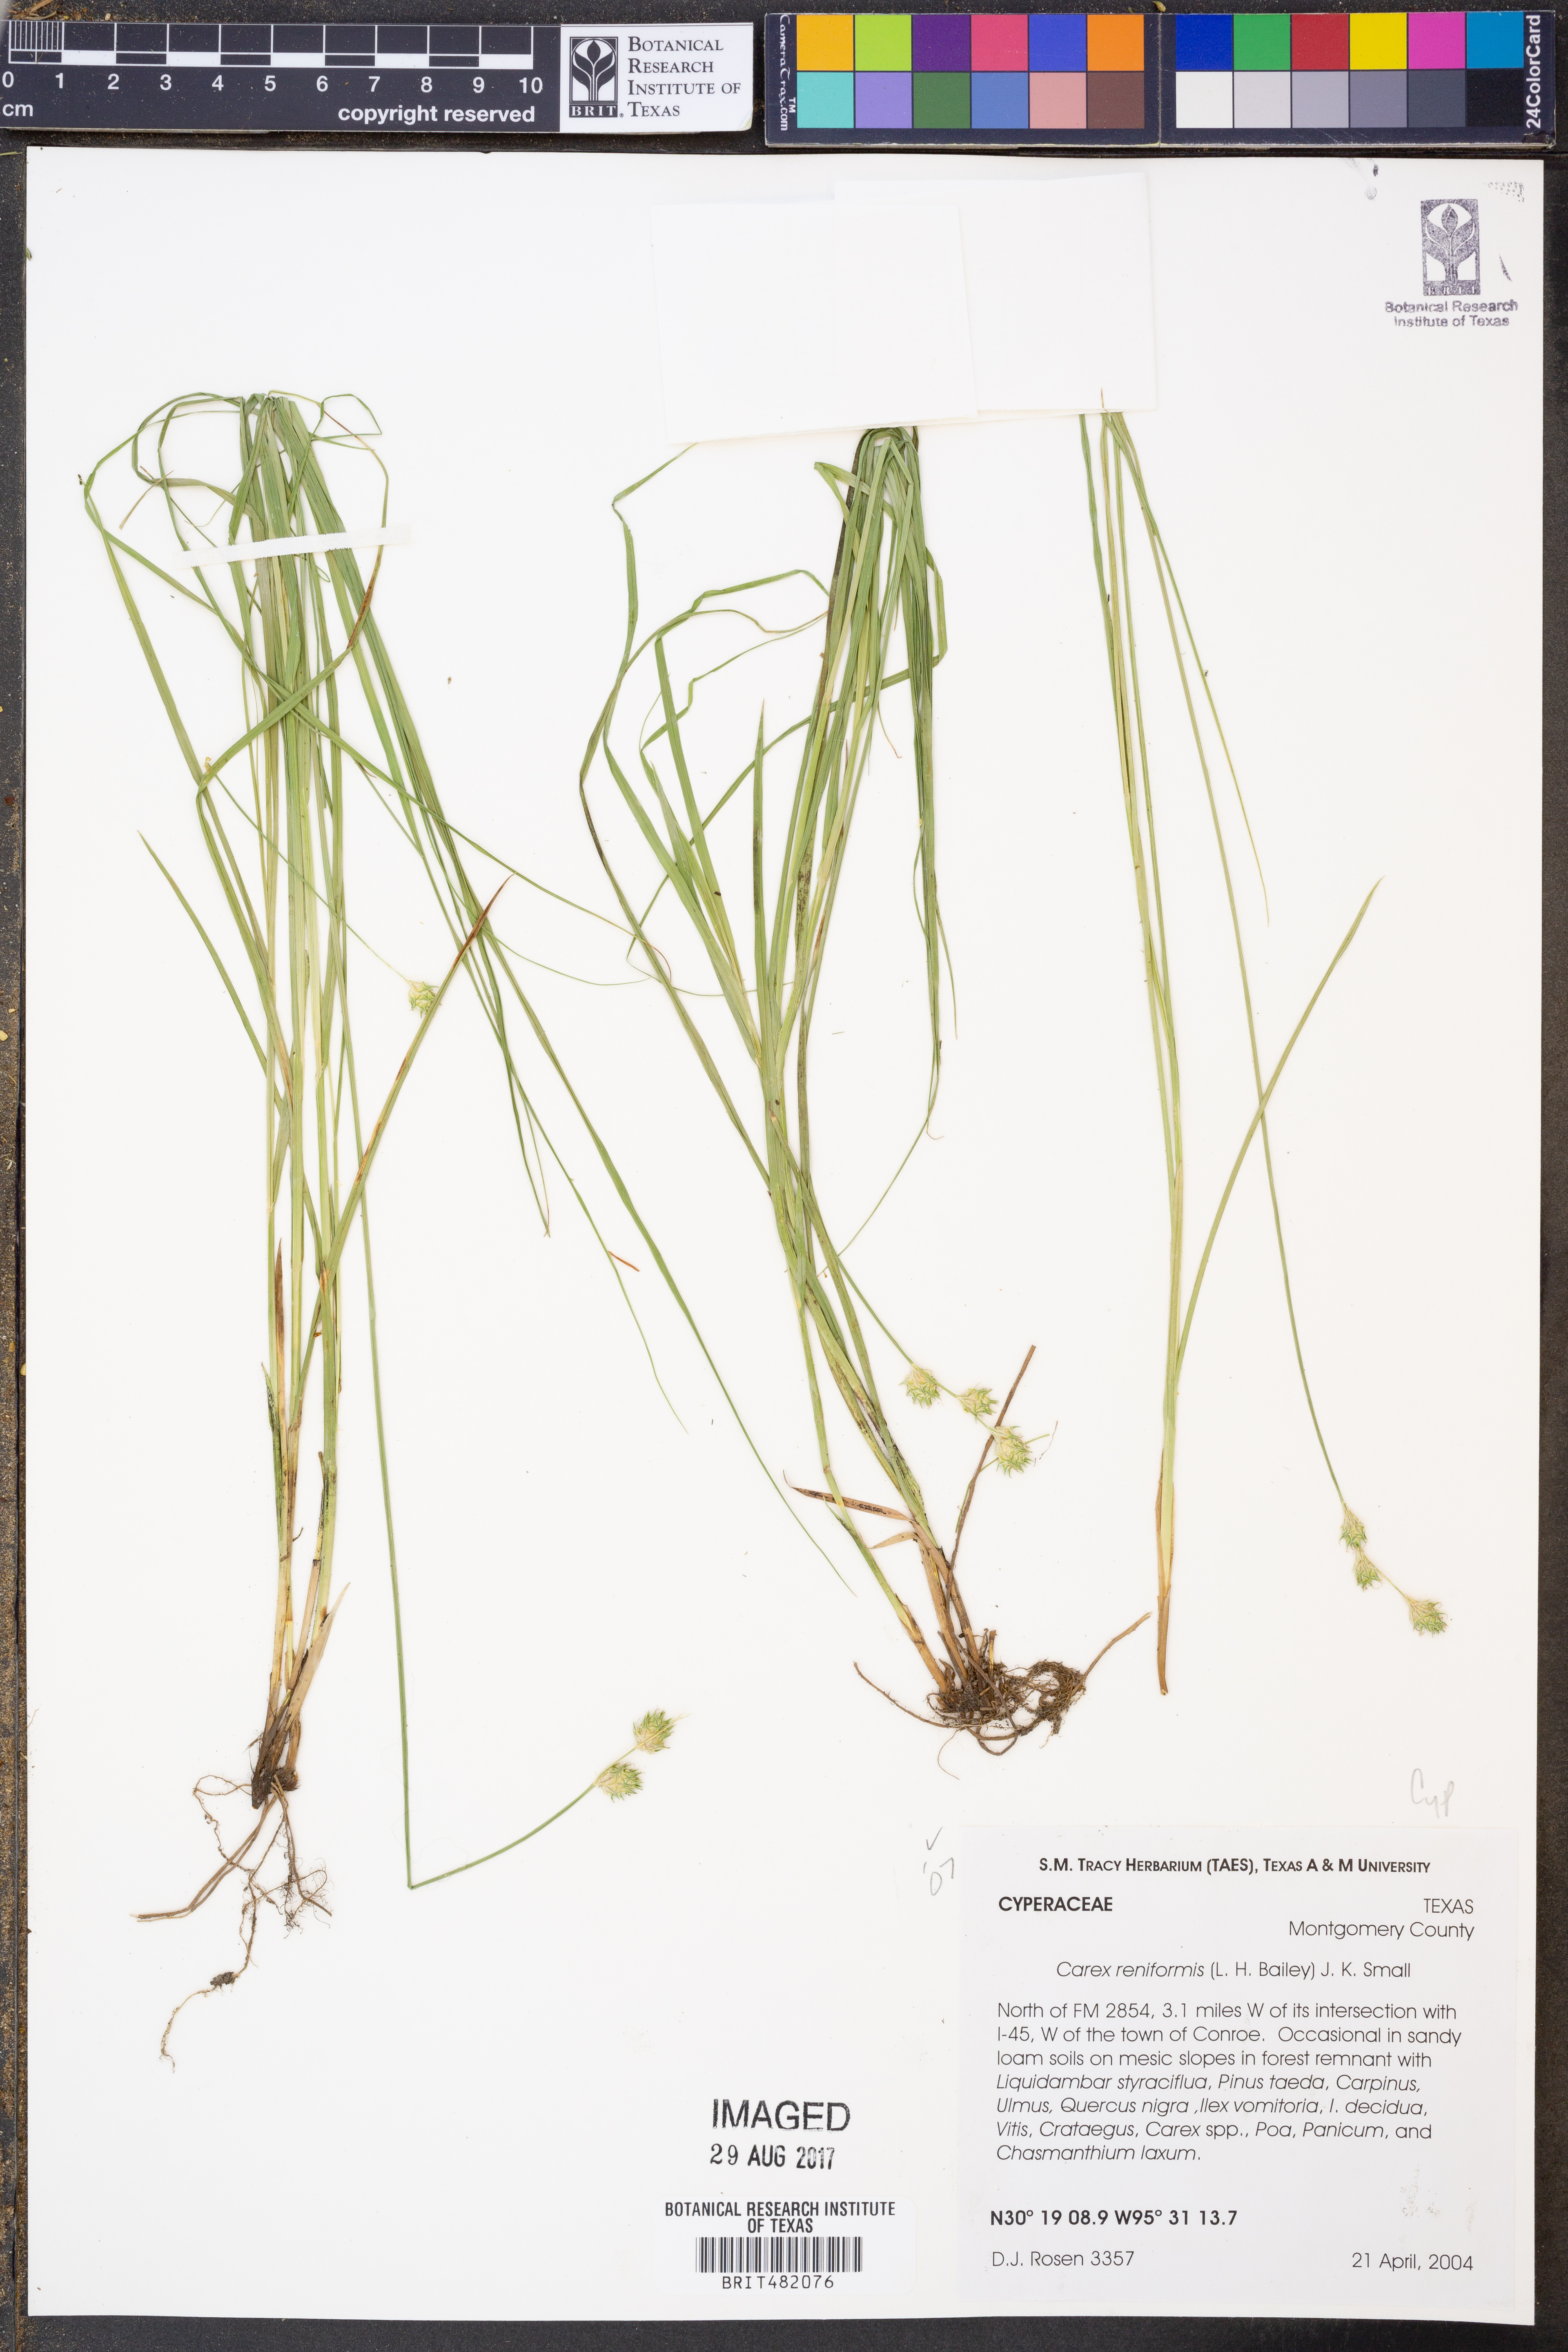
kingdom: Plantae
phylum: Tracheophyta
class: Liliopsida
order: Poales
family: Cyperaceae
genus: Carex
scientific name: Carex reniformis
